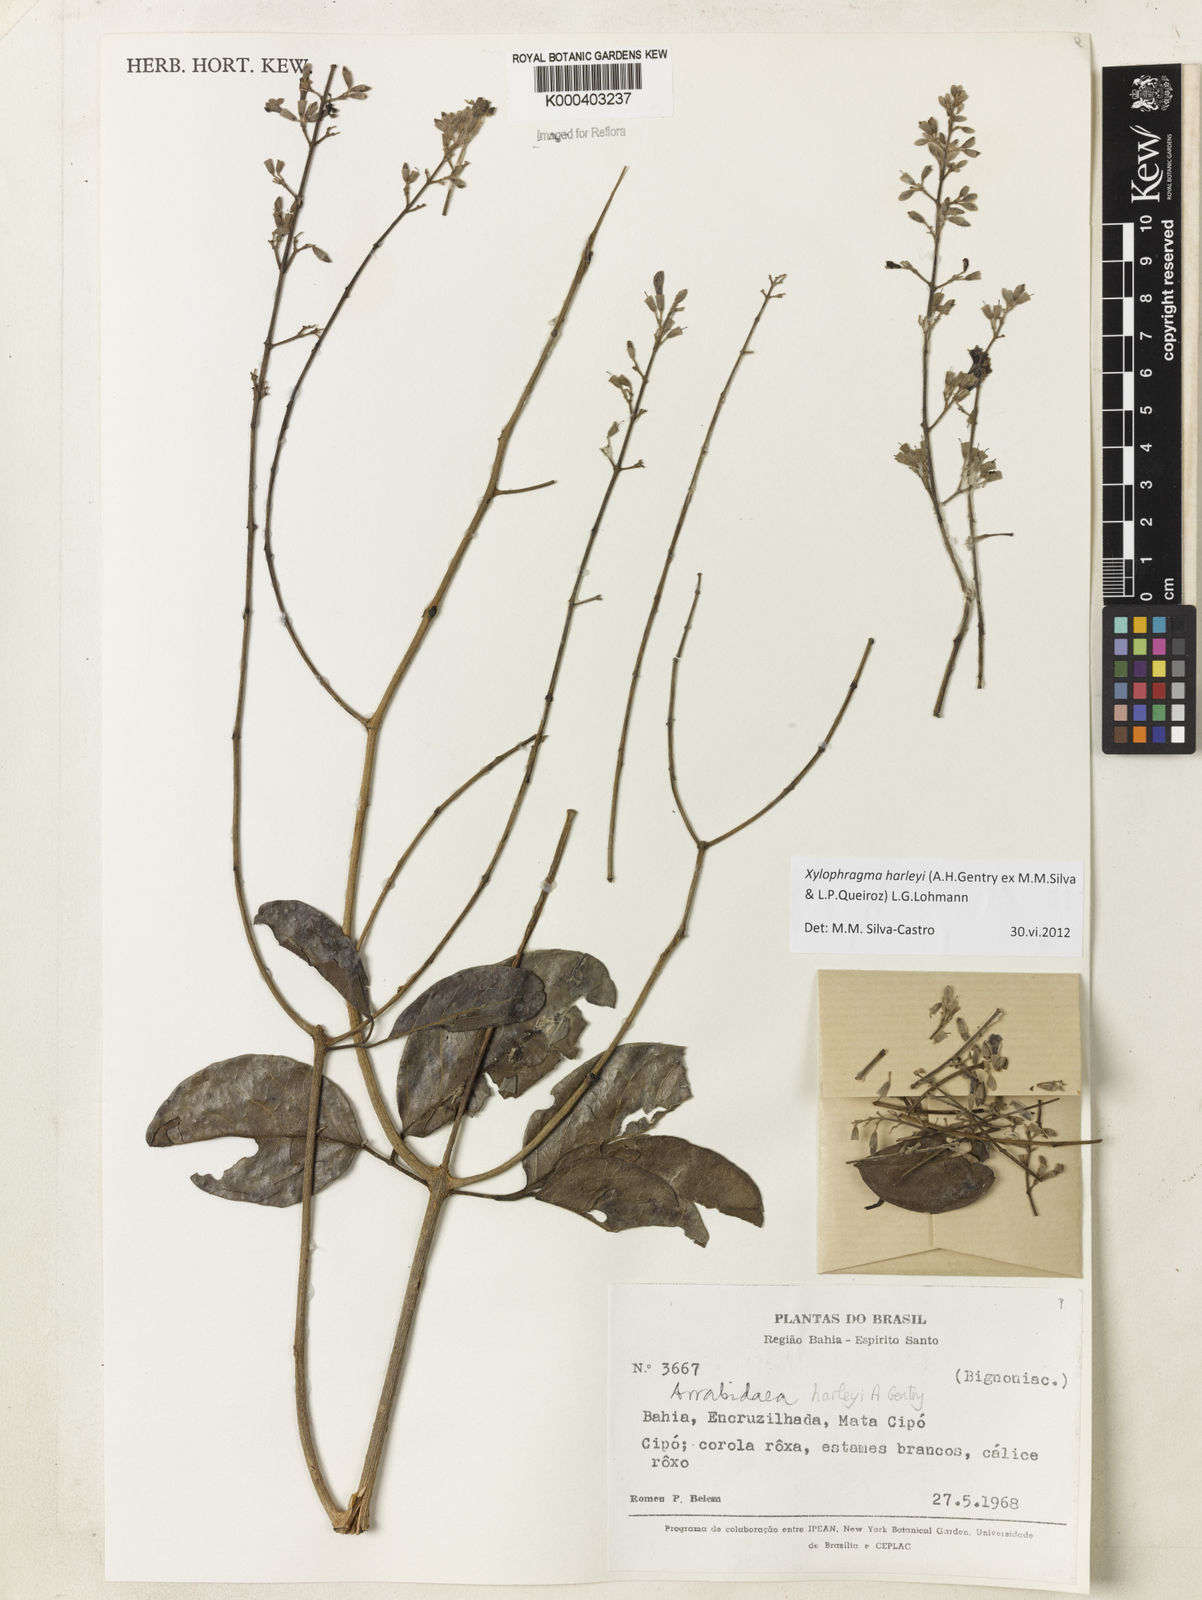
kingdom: Plantae
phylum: Tracheophyta
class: Magnoliopsida
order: Lamiales
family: Bignoniaceae
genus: Xylophragma
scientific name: Xylophragma harleyi
